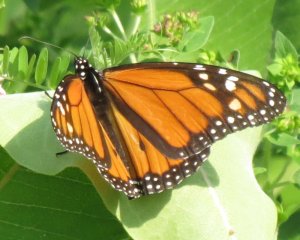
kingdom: Animalia
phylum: Arthropoda
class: Insecta
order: Lepidoptera
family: Nymphalidae
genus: Danaus
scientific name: Danaus plexippus
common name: Monarch
